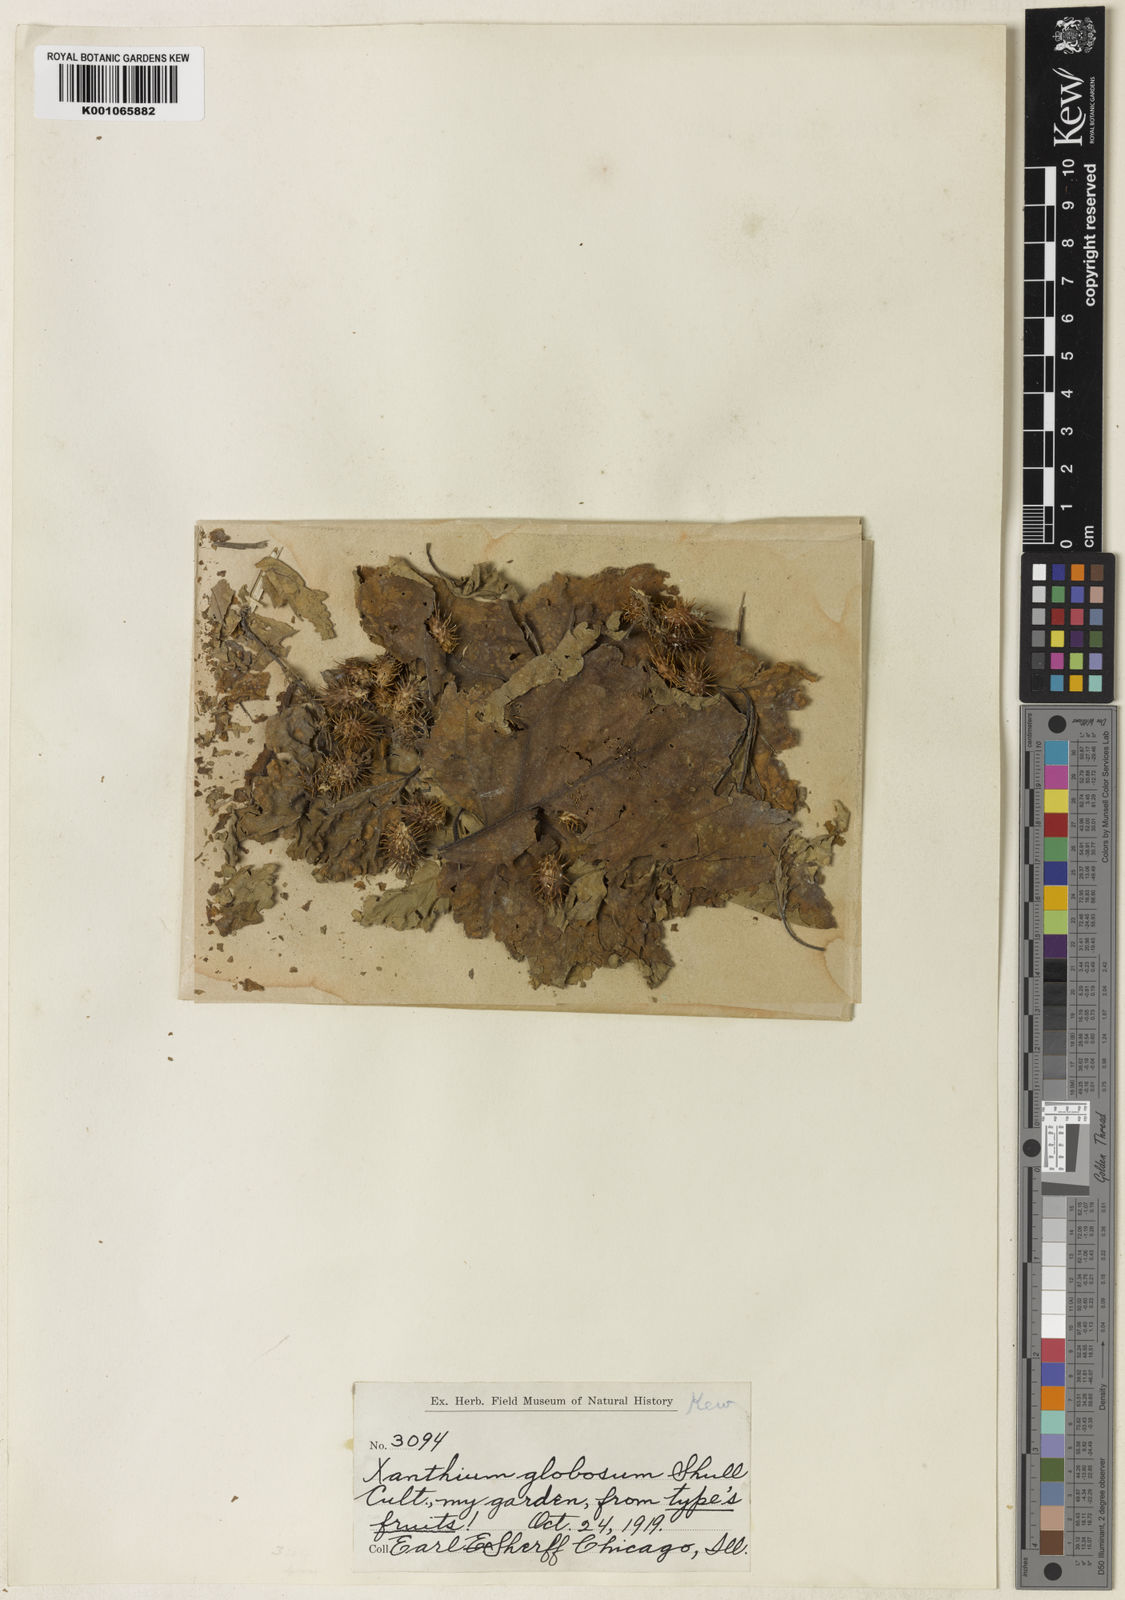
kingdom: Plantae
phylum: Tracheophyta
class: Magnoliopsida
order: Asterales
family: Asteraceae
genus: Xanthium
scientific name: Xanthium strumarium
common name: Rough cocklebur
